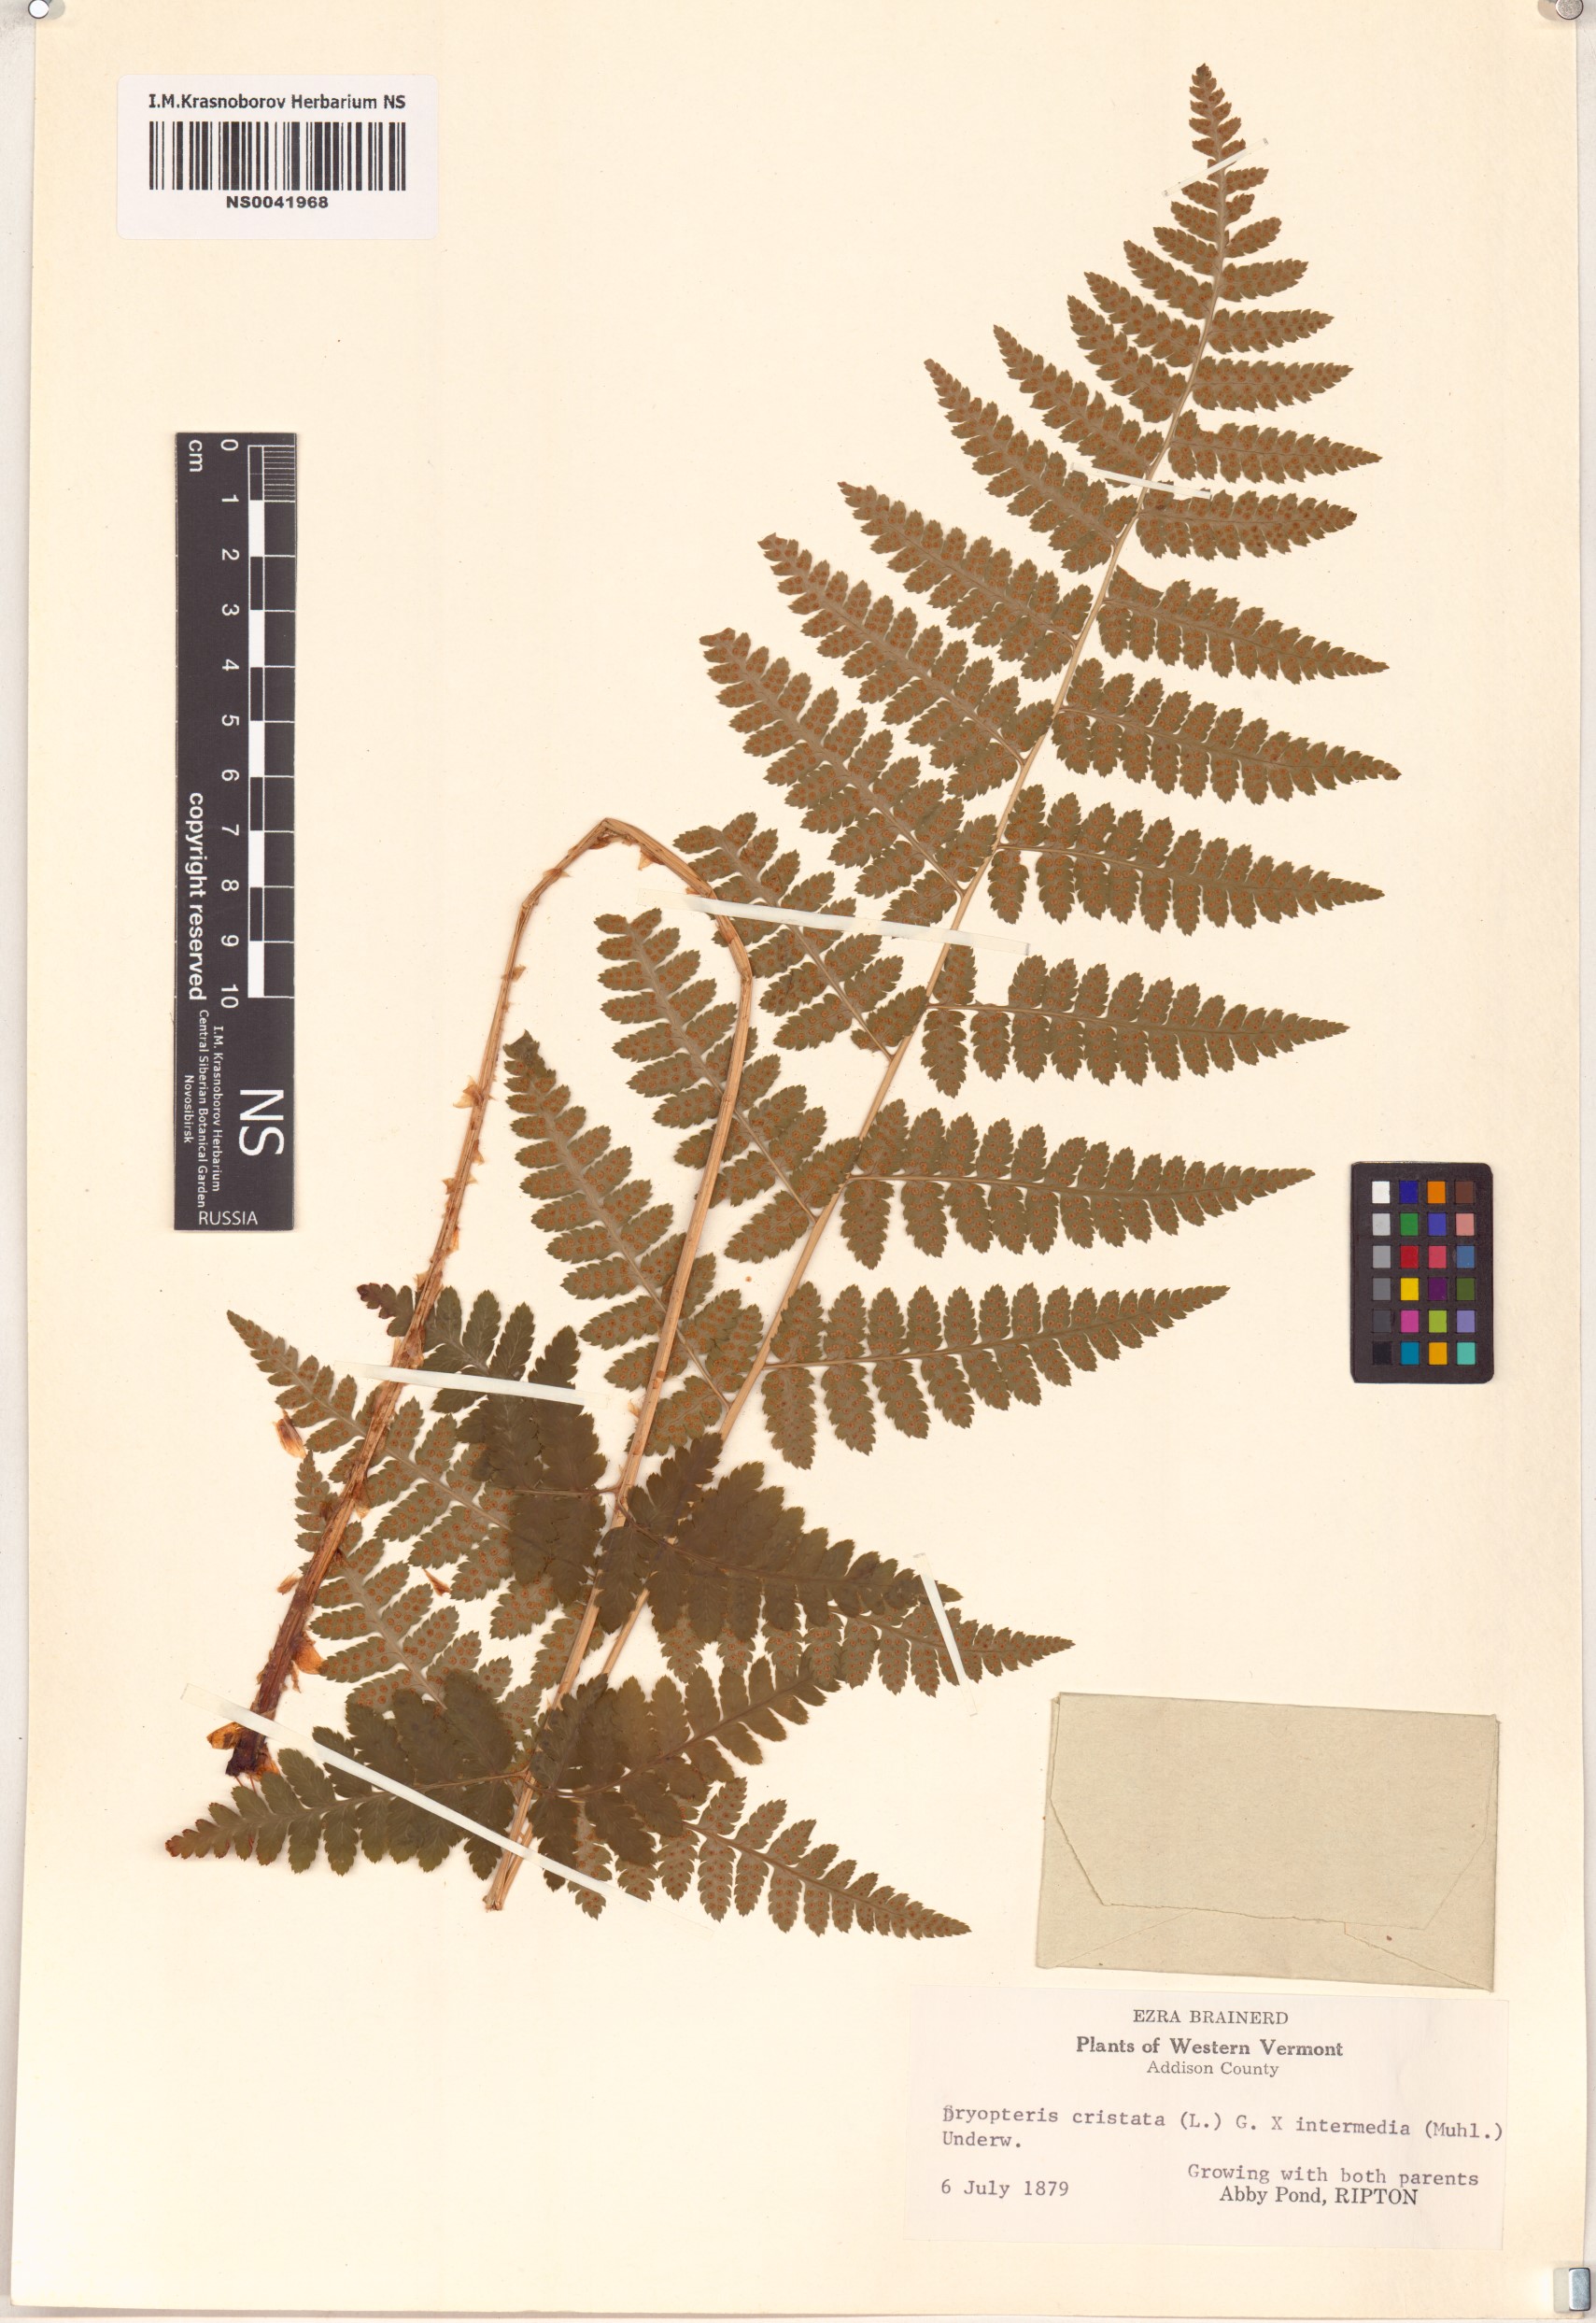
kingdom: Plantae
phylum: Tracheophyta
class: Polypodiopsida
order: Polypodiales
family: Dryopteridaceae
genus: Dryopteris
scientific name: Dryopteris cristata
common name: Crested wood fern
